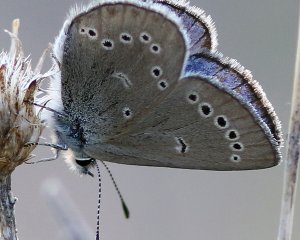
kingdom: Animalia
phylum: Arthropoda
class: Insecta
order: Lepidoptera
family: Lycaenidae
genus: Glaucopsyche
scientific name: Glaucopsyche lygdamus
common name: Silvery Blue
